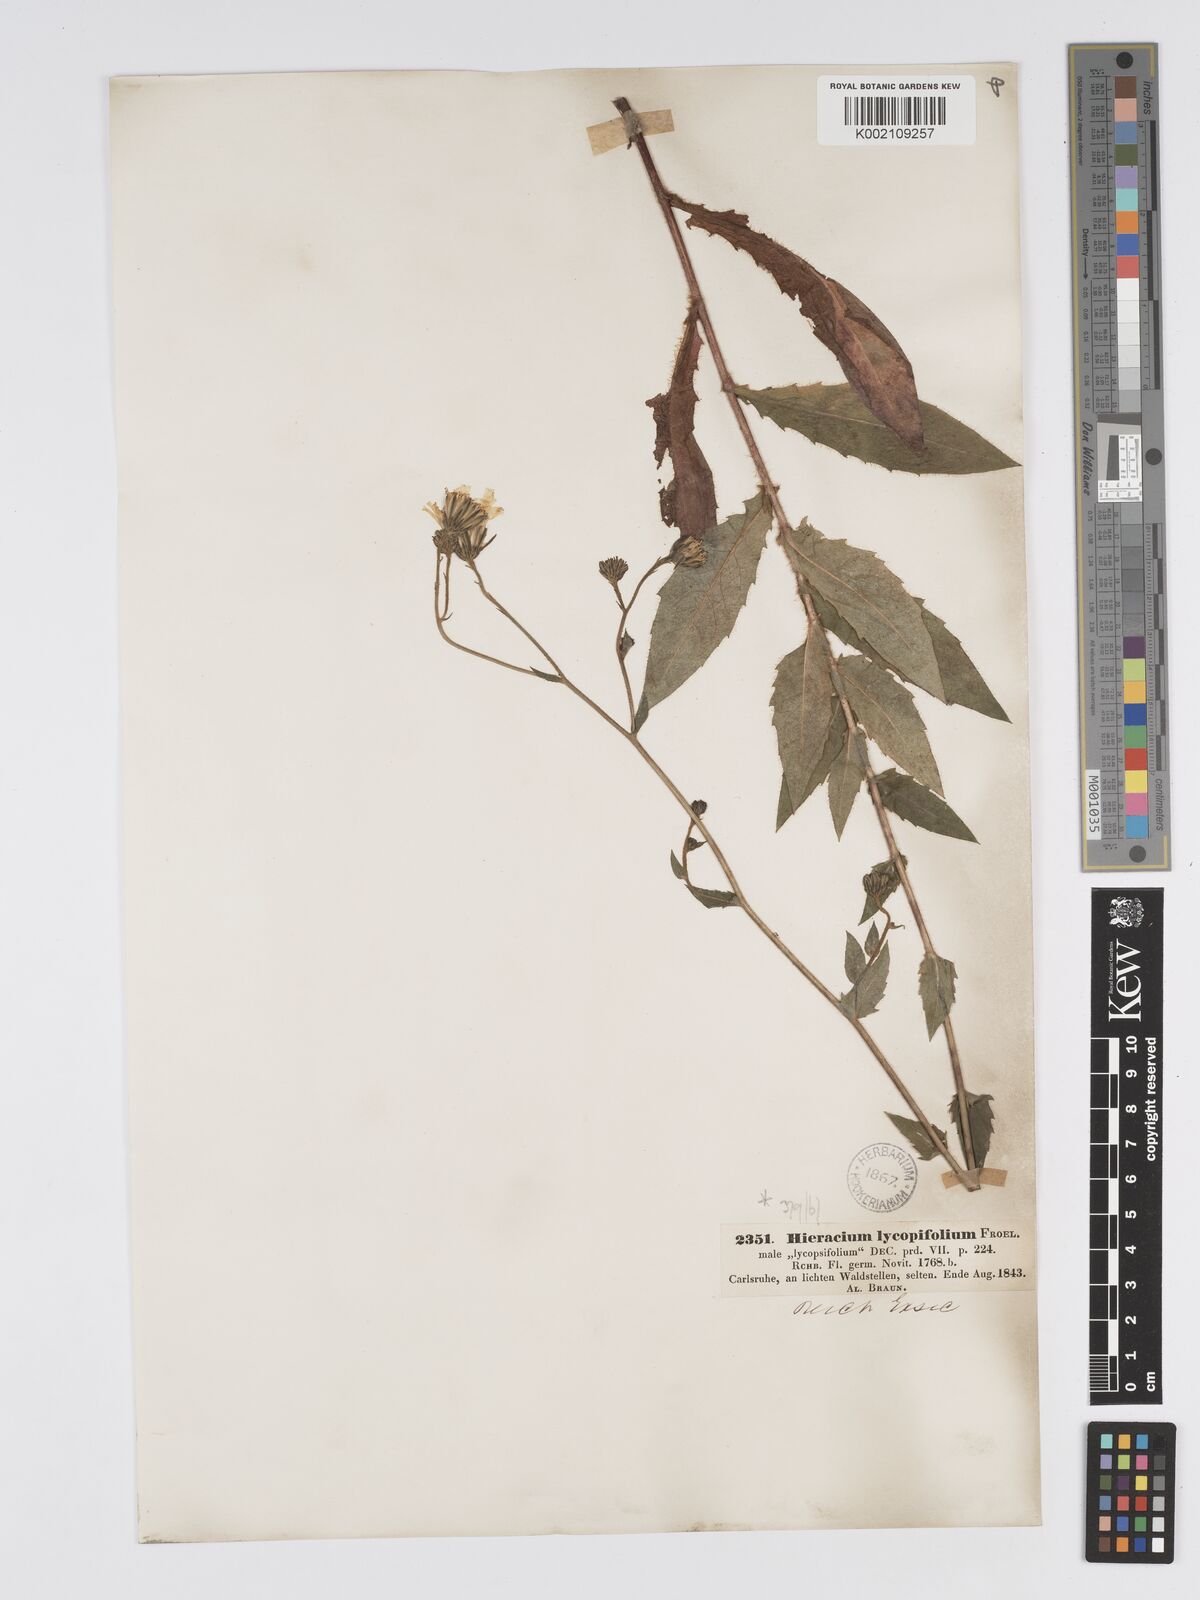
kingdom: Plantae
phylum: Tracheophyta
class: Magnoliopsida
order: Asterales
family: Asteraceae
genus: Hieracium
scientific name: Hieracium lycopifolium
